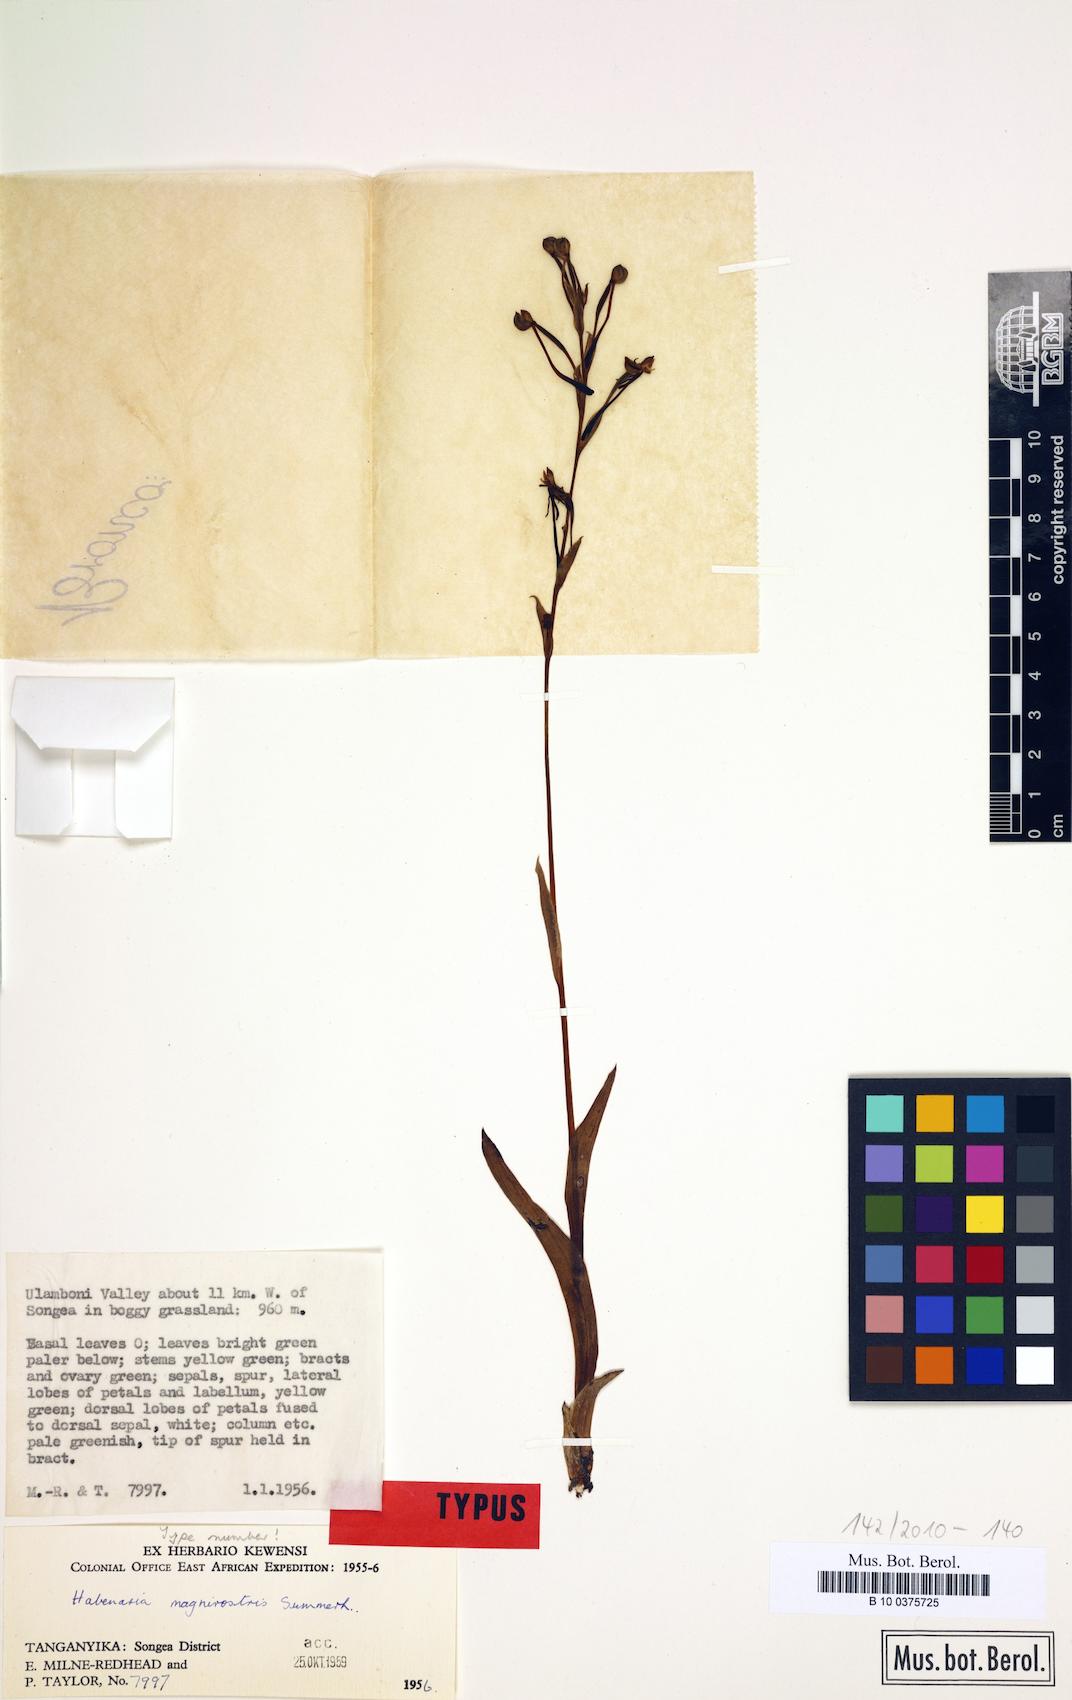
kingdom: Plantae
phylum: Tracheophyta
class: Liliopsida
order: Asparagales
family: Orchidaceae
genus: Habenaria
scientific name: Habenaria magnirostris
